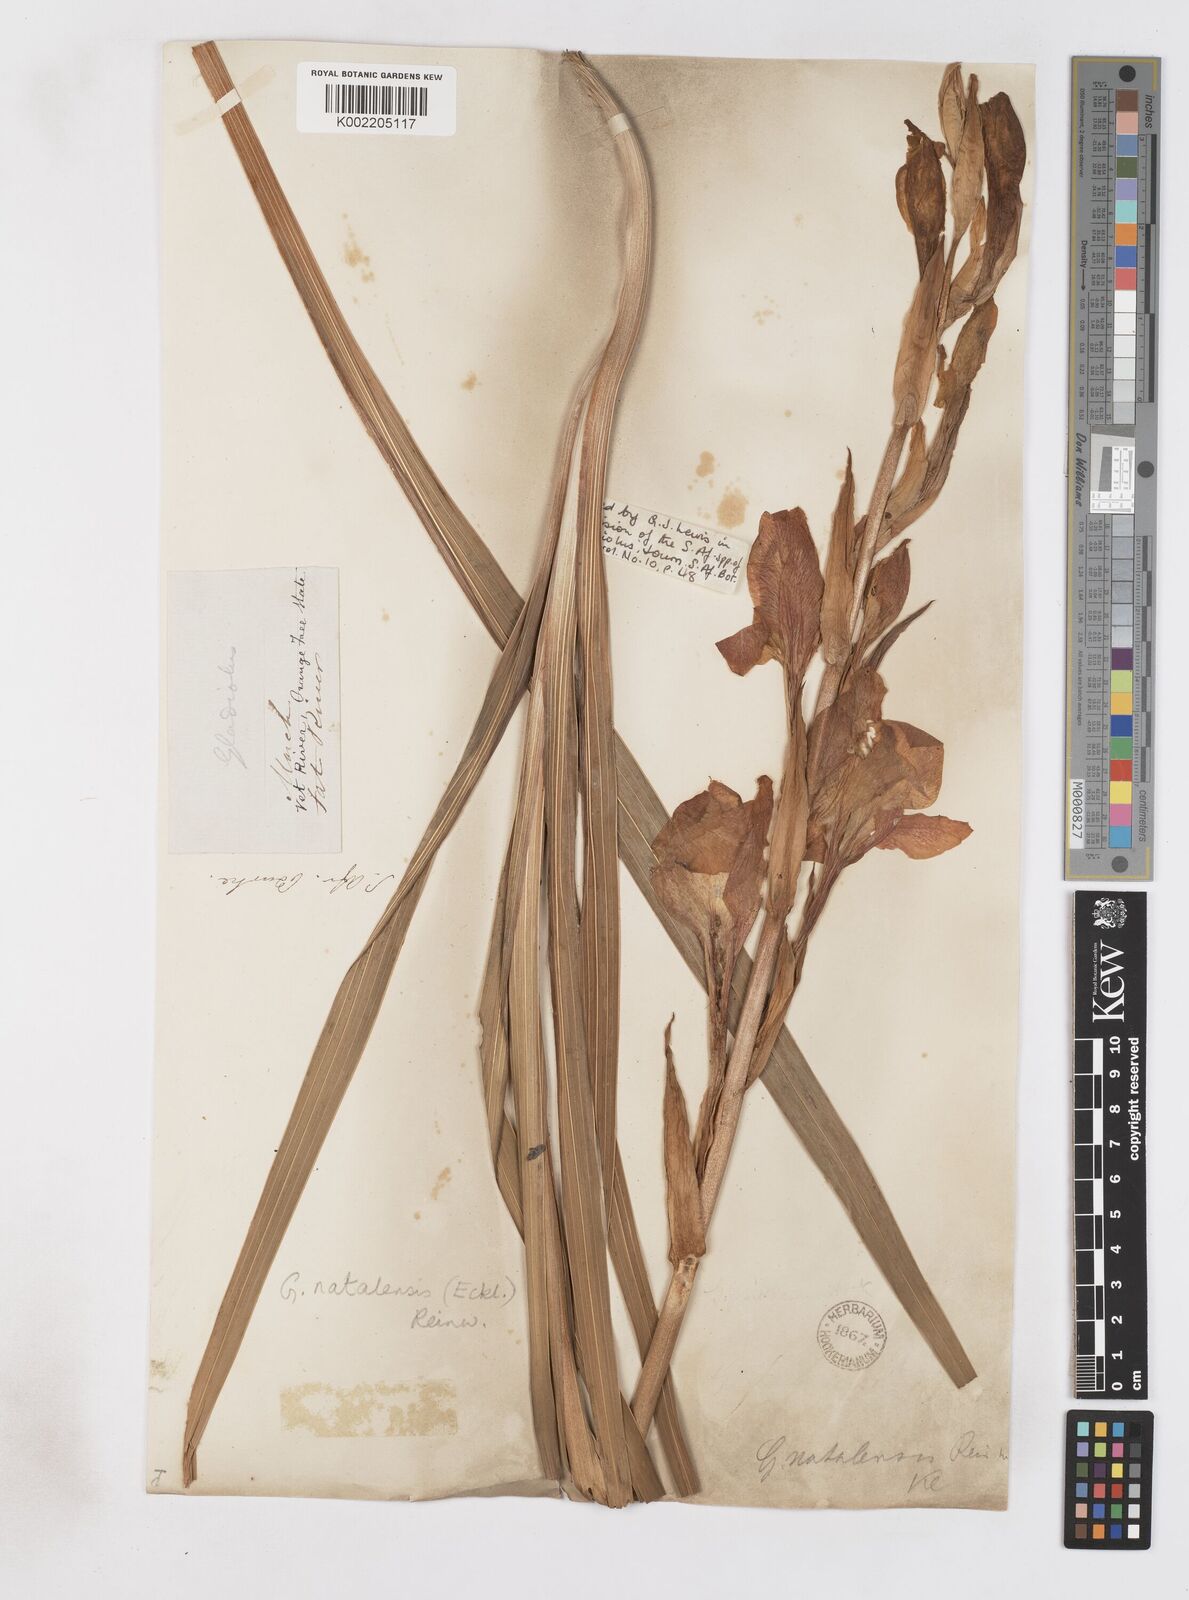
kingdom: Plantae
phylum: Tracheophyta
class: Liliopsida
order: Asparagales
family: Iridaceae
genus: Gladiolus
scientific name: Gladiolus dalenii
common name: Cornflag
